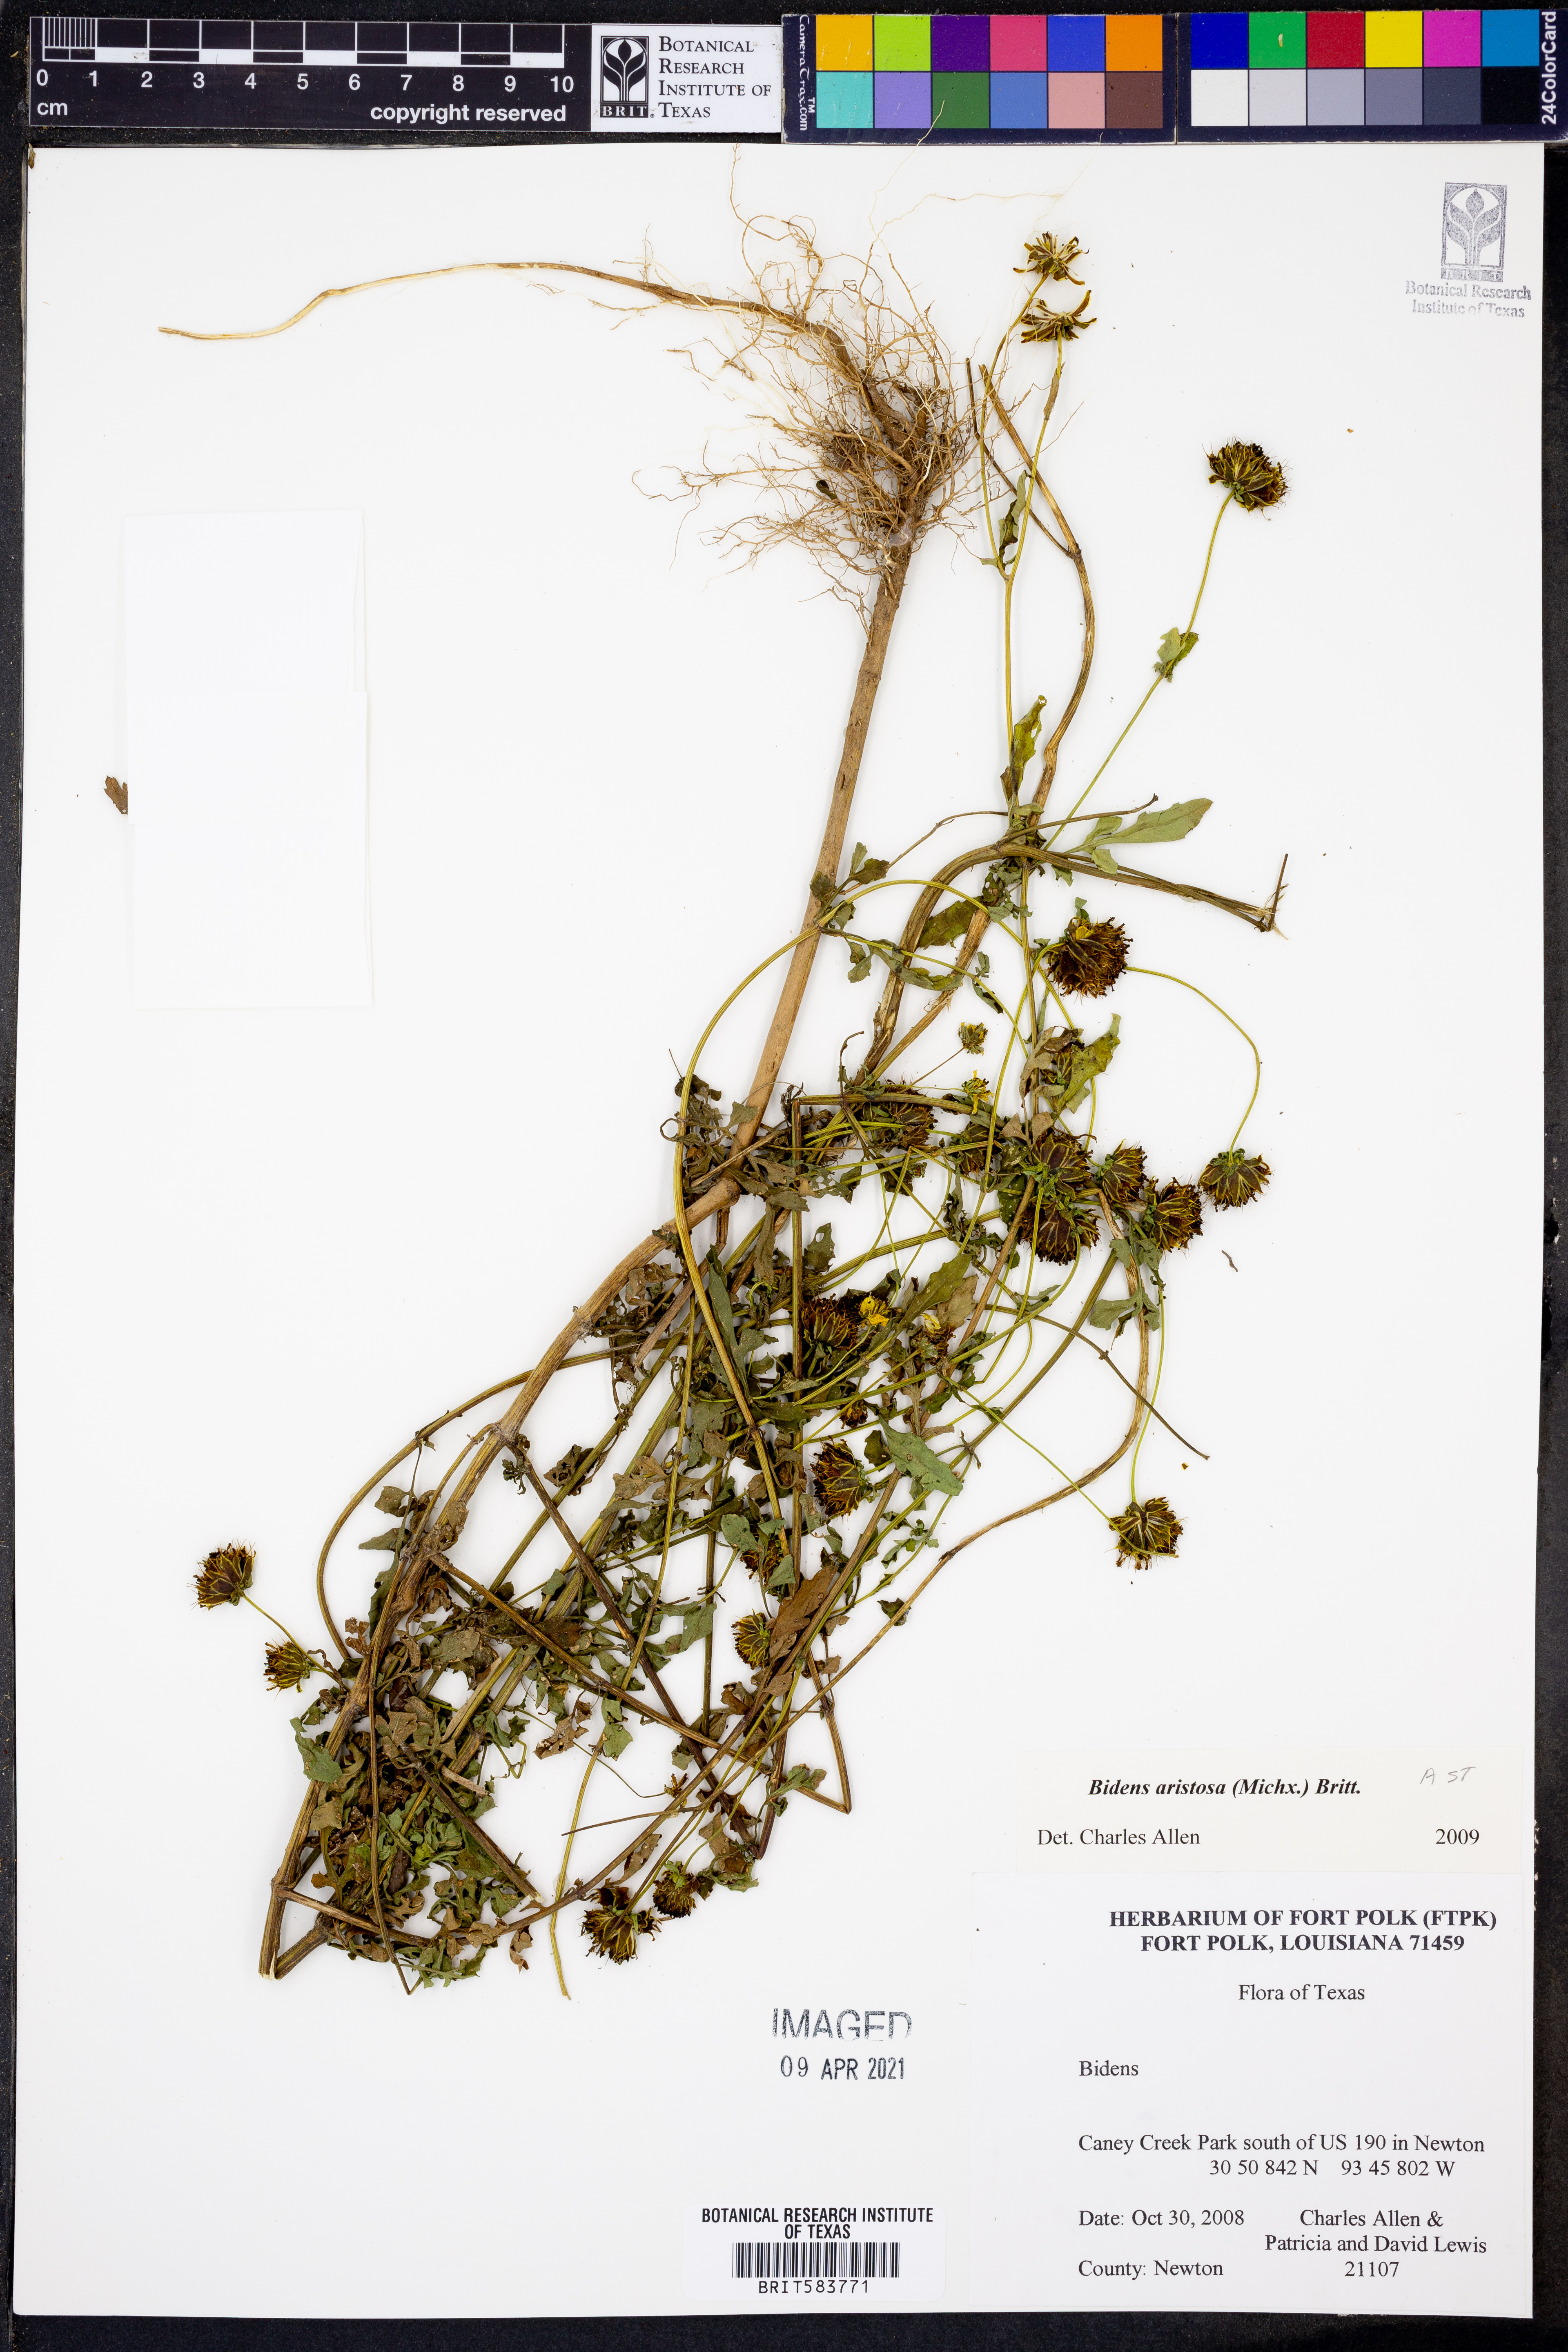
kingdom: Plantae
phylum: Tracheophyta
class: Magnoliopsida
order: Asterales
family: Asteraceae
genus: Bidens
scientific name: Bidens aristosa
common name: Western tickseed
